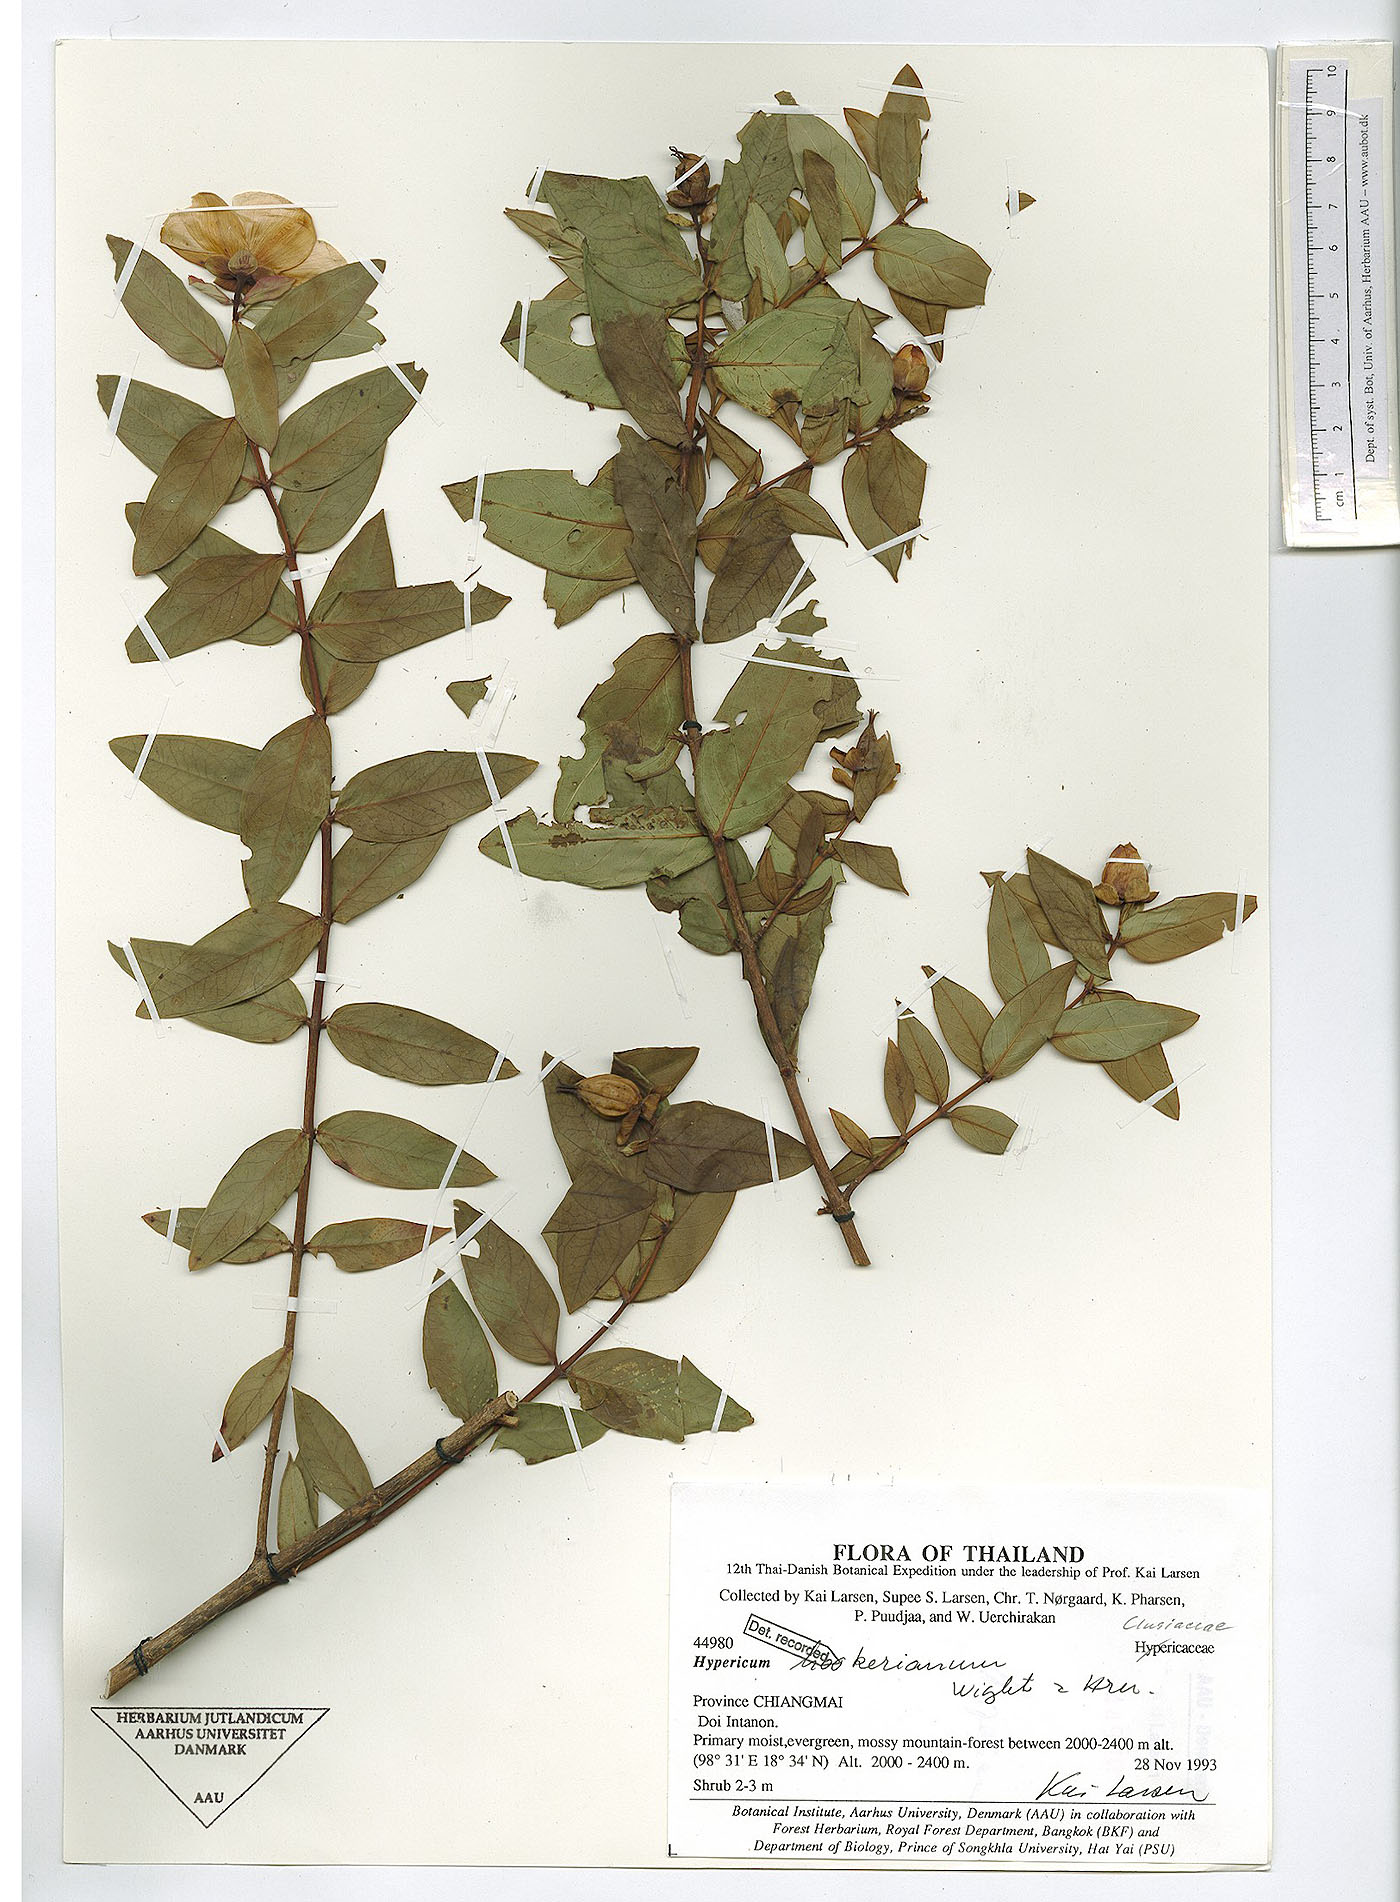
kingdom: Plantae
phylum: Tracheophyta
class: Magnoliopsida
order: Malpighiales
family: Hypericaceae
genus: Hypericum
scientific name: Hypericum hookerianum
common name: Hooker's st. johnswort
